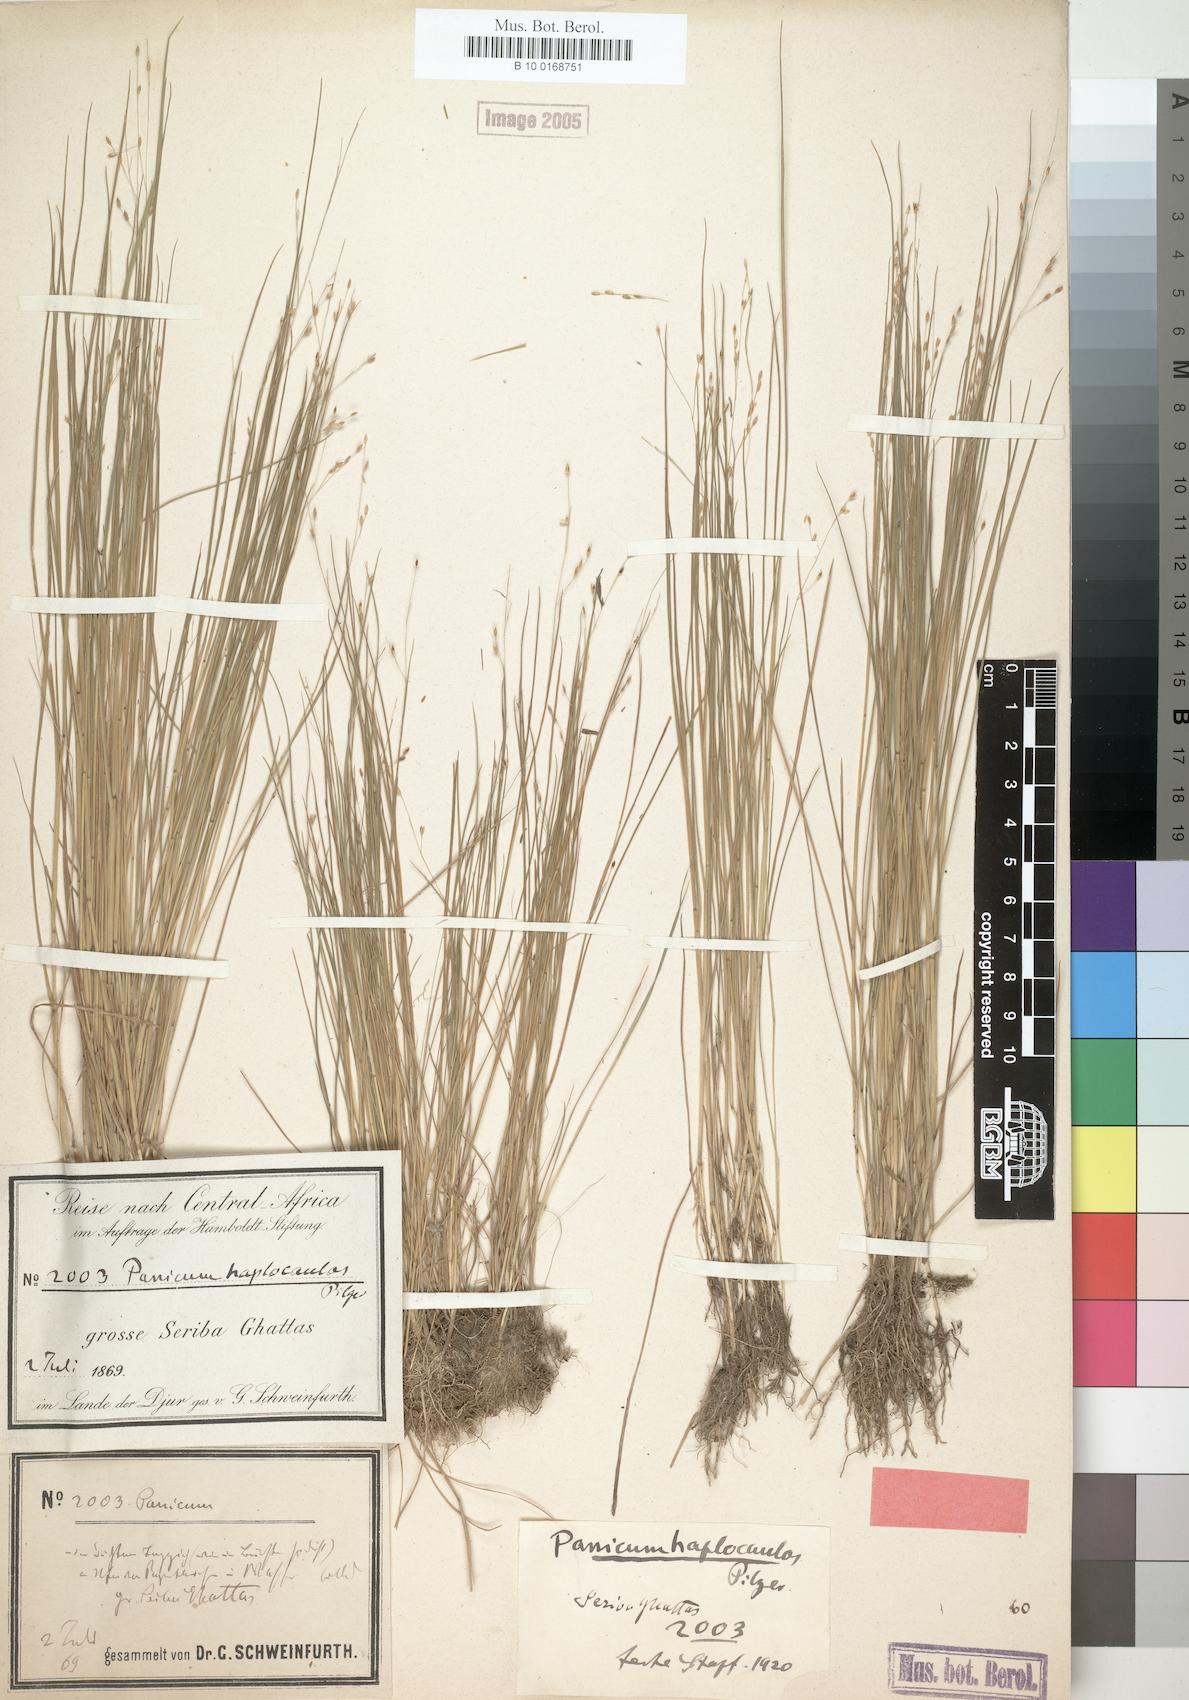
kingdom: Plantae
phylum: Tracheophyta
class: Liliopsida
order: Poales
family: Poaceae
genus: Panicum
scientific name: Panicum haplocaulos
